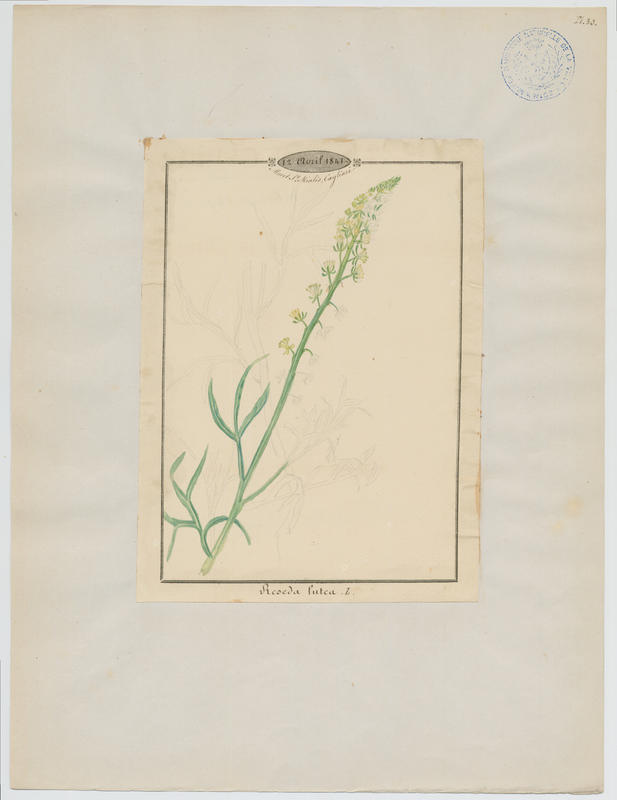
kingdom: Plantae
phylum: Tracheophyta
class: Magnoliopsida
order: Brassicales
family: Resedaceae
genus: Reseda
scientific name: Reseda lutea
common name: Wild mignonette
